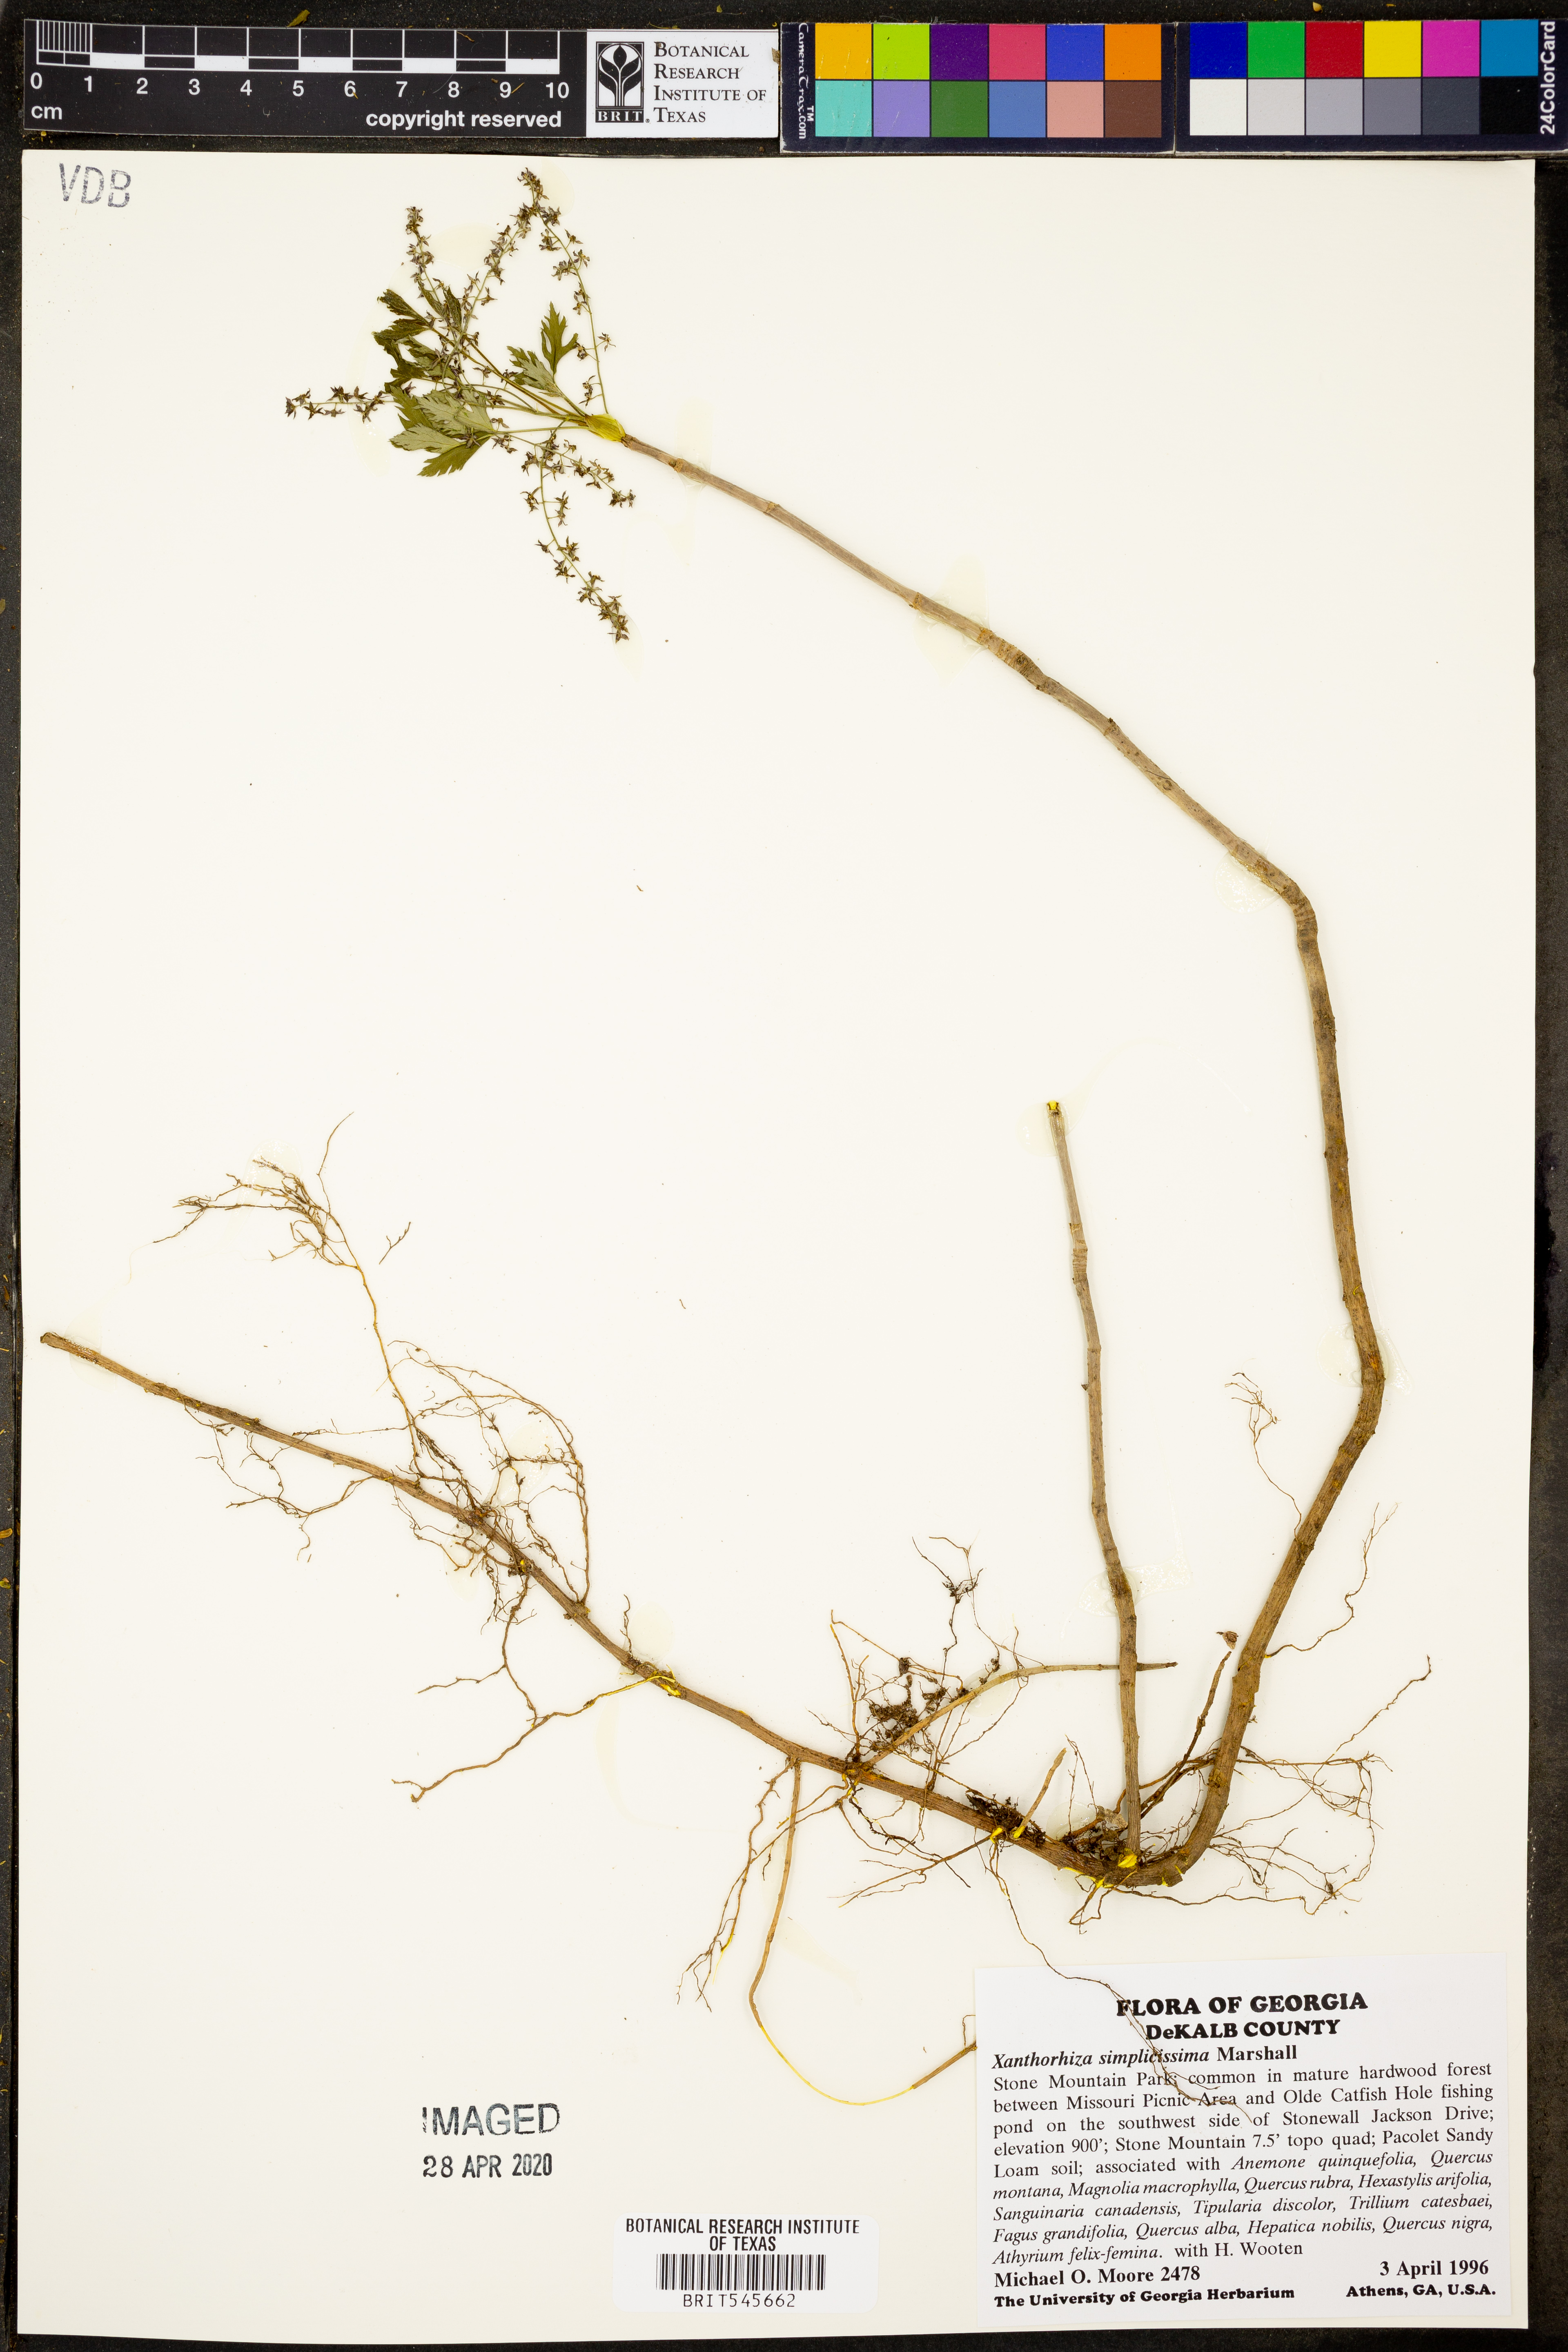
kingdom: Plantae
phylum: Tracheophyta
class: Magnoliopsida
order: Ranunculales
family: Ranunculaceae
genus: Xanthorhiza
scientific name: Xanthorhiza simplicissima
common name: Yellowroot
